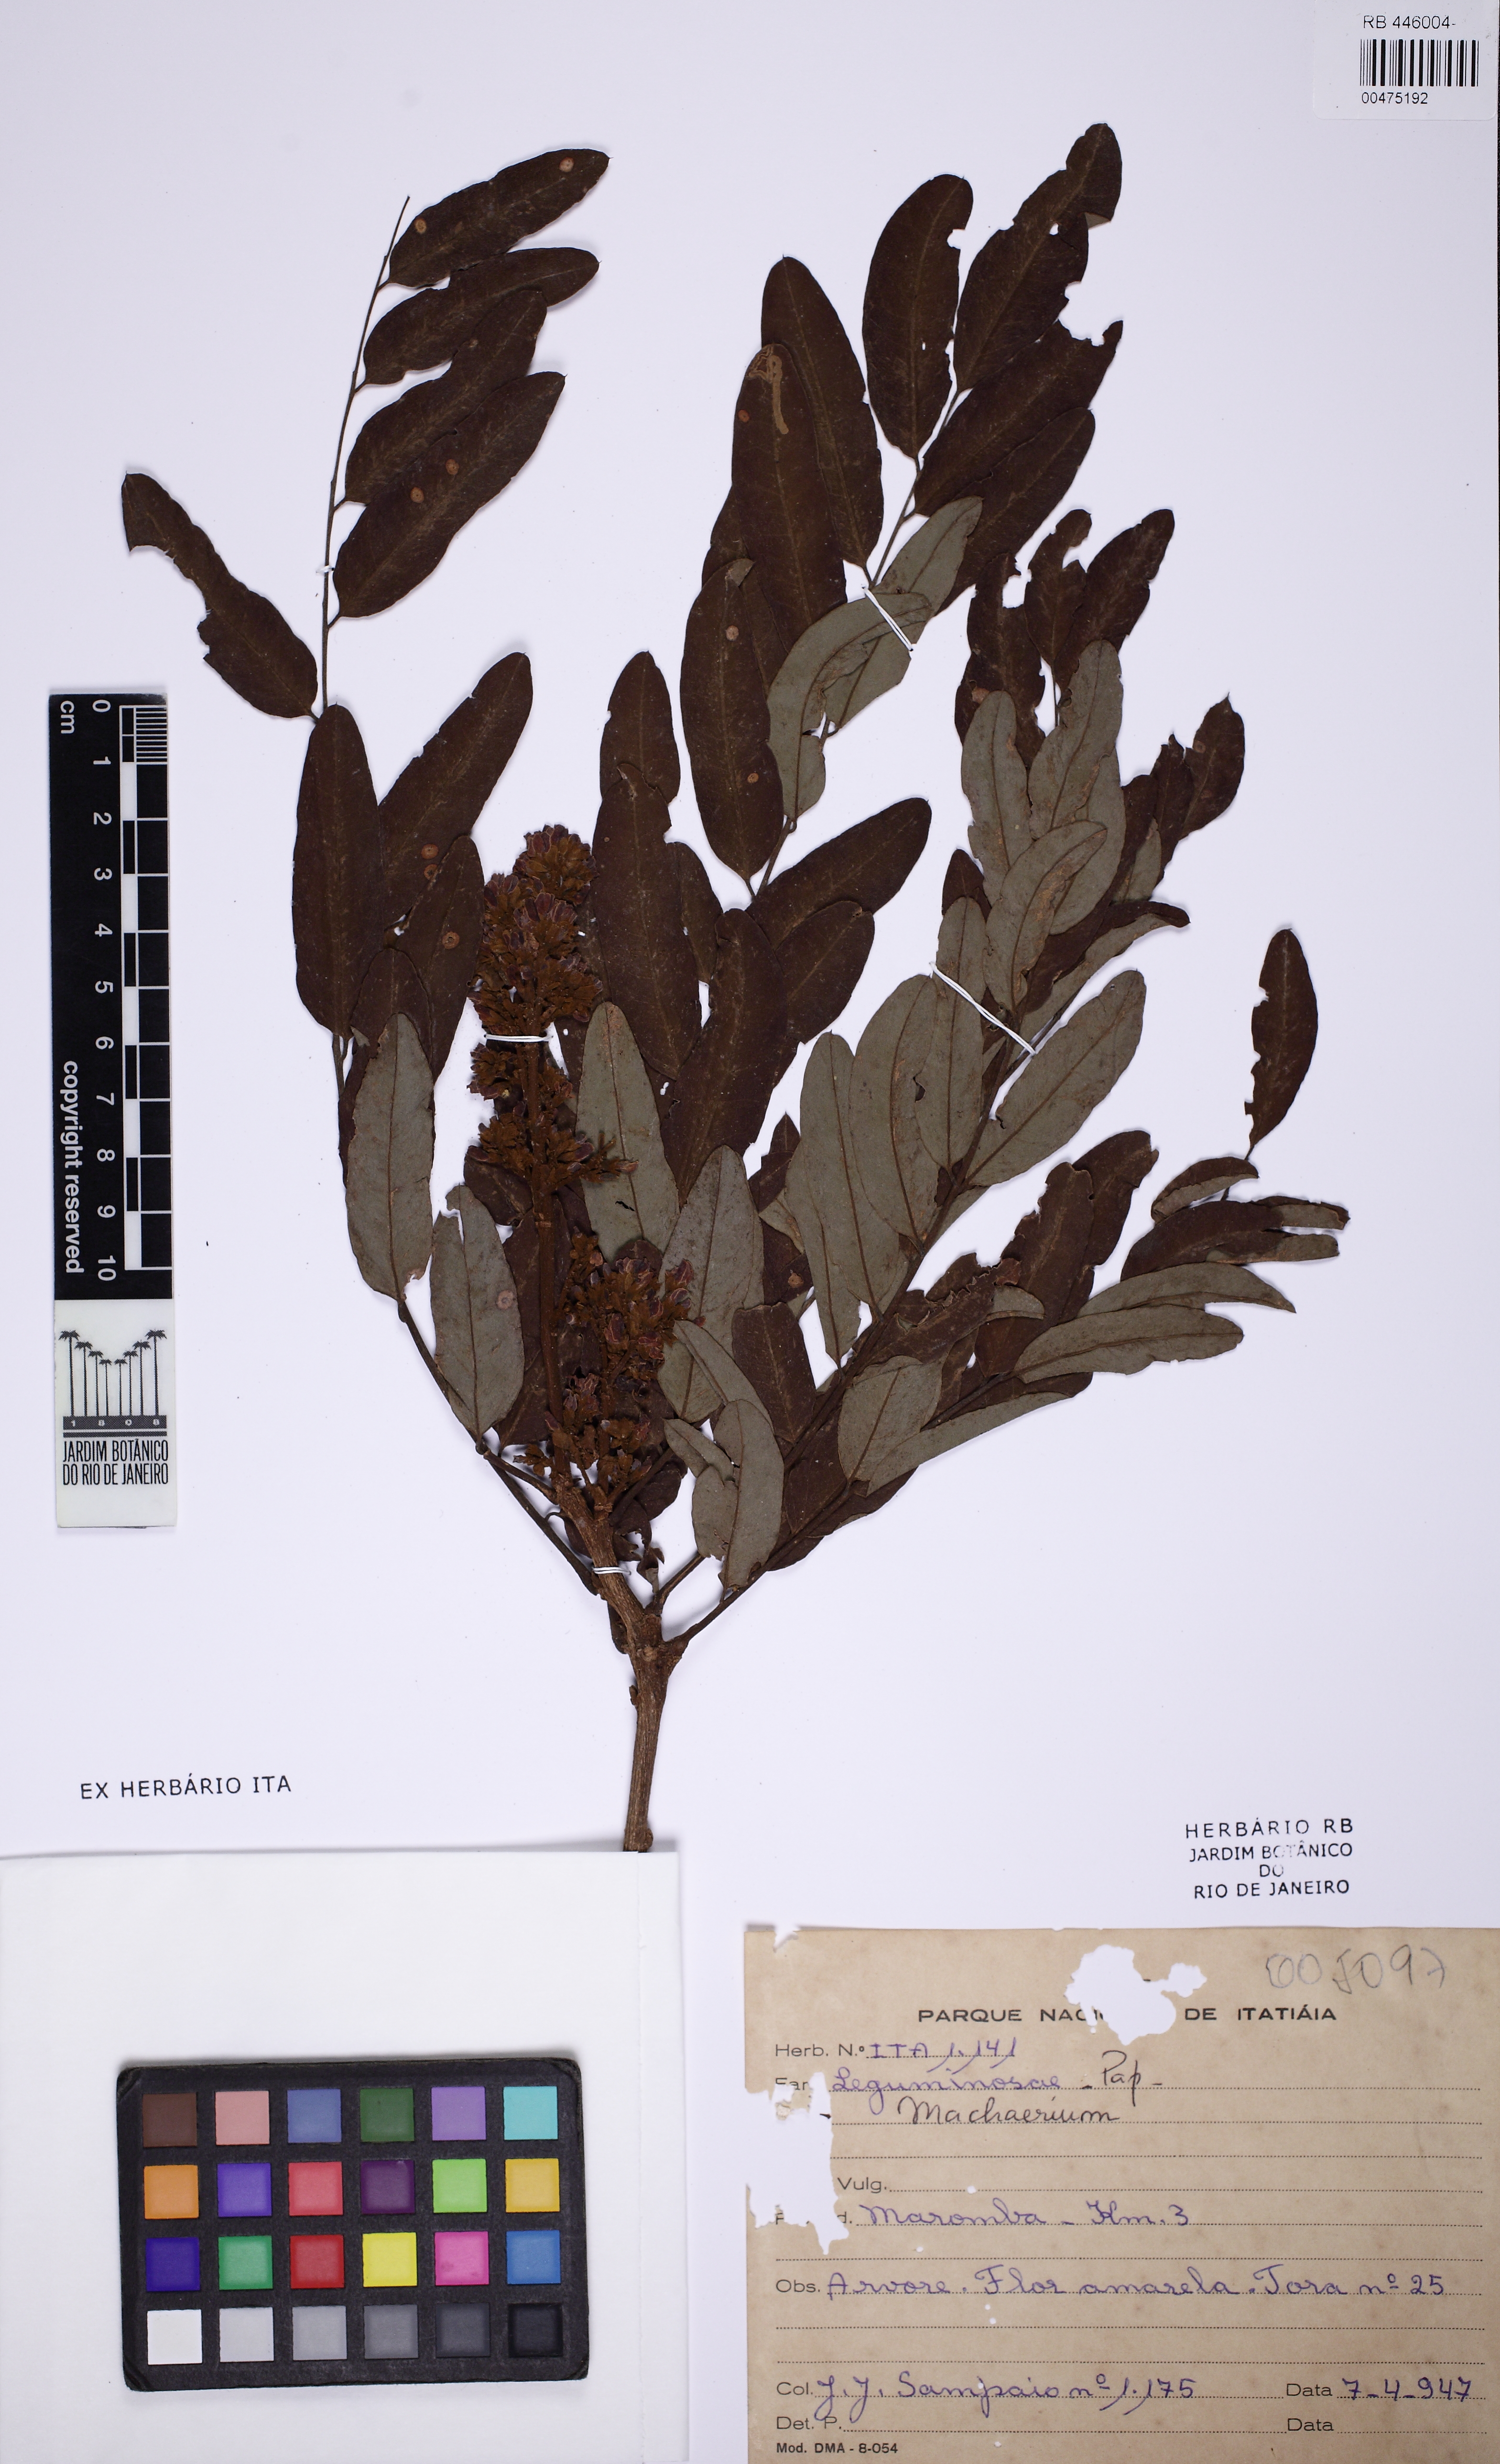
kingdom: Plantae
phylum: Tracheophyta
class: Magnoliopsida
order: Fabales
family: Fabaceae
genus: Machaerium
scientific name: Machaerium
